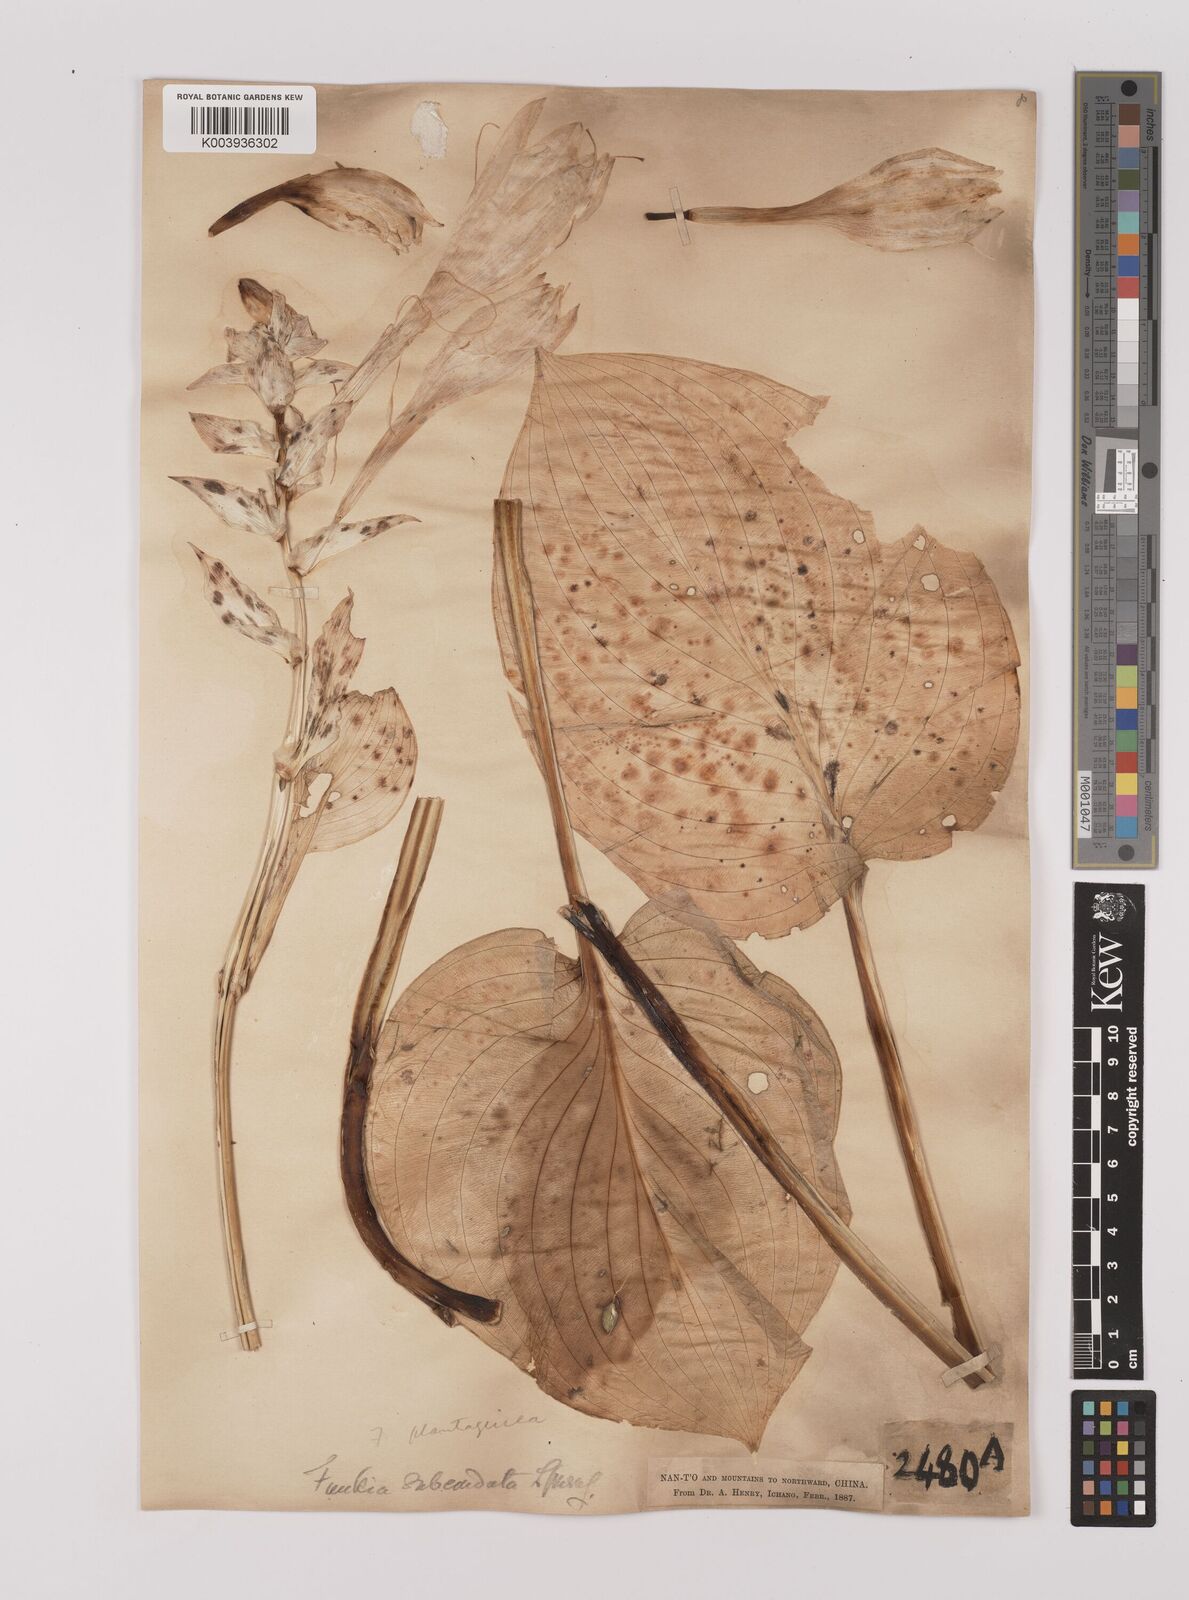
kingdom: Plantae
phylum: Tracheophyta
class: Liliopsida
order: Asparagales
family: Asparagaceae
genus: Hosta
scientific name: Hosta plantaginea
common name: August-lily
